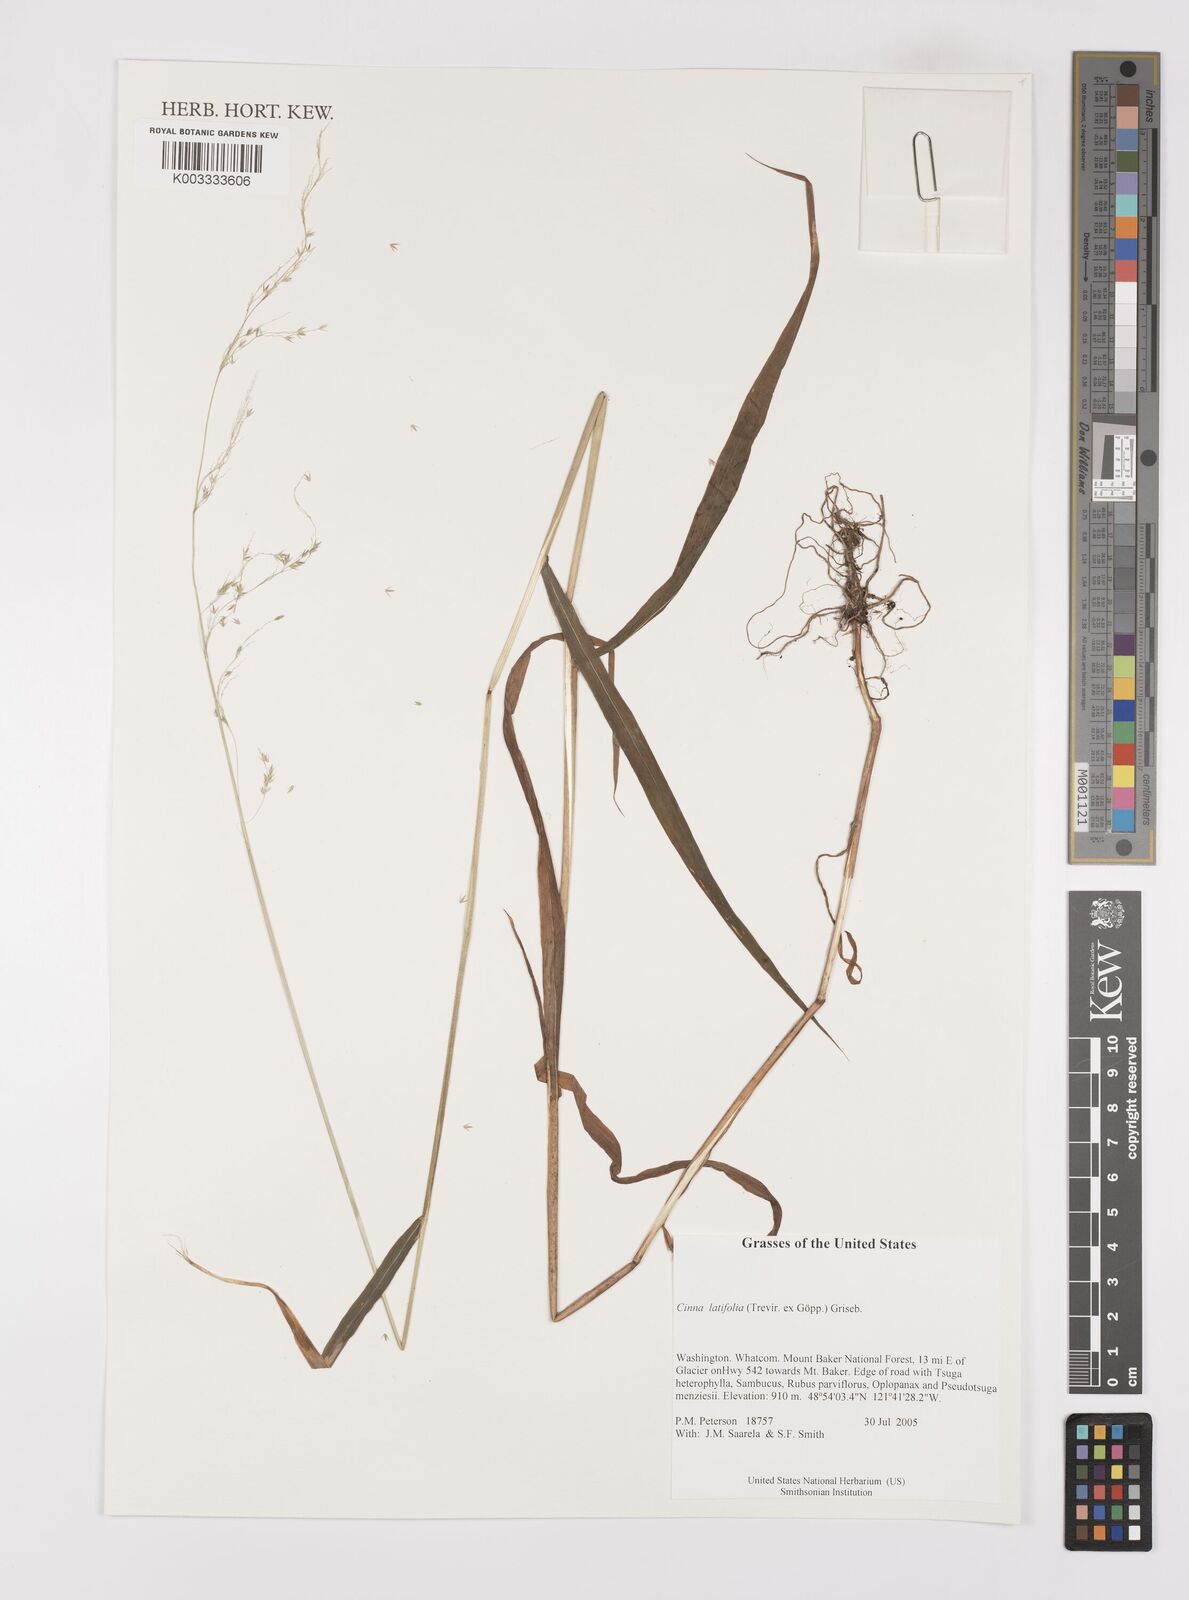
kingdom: Plantae
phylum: Tracheophyta
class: Liliopsida
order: Poales
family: Poaceae
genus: Cinna
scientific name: Cinna latifolia
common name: Drooping woodreed
